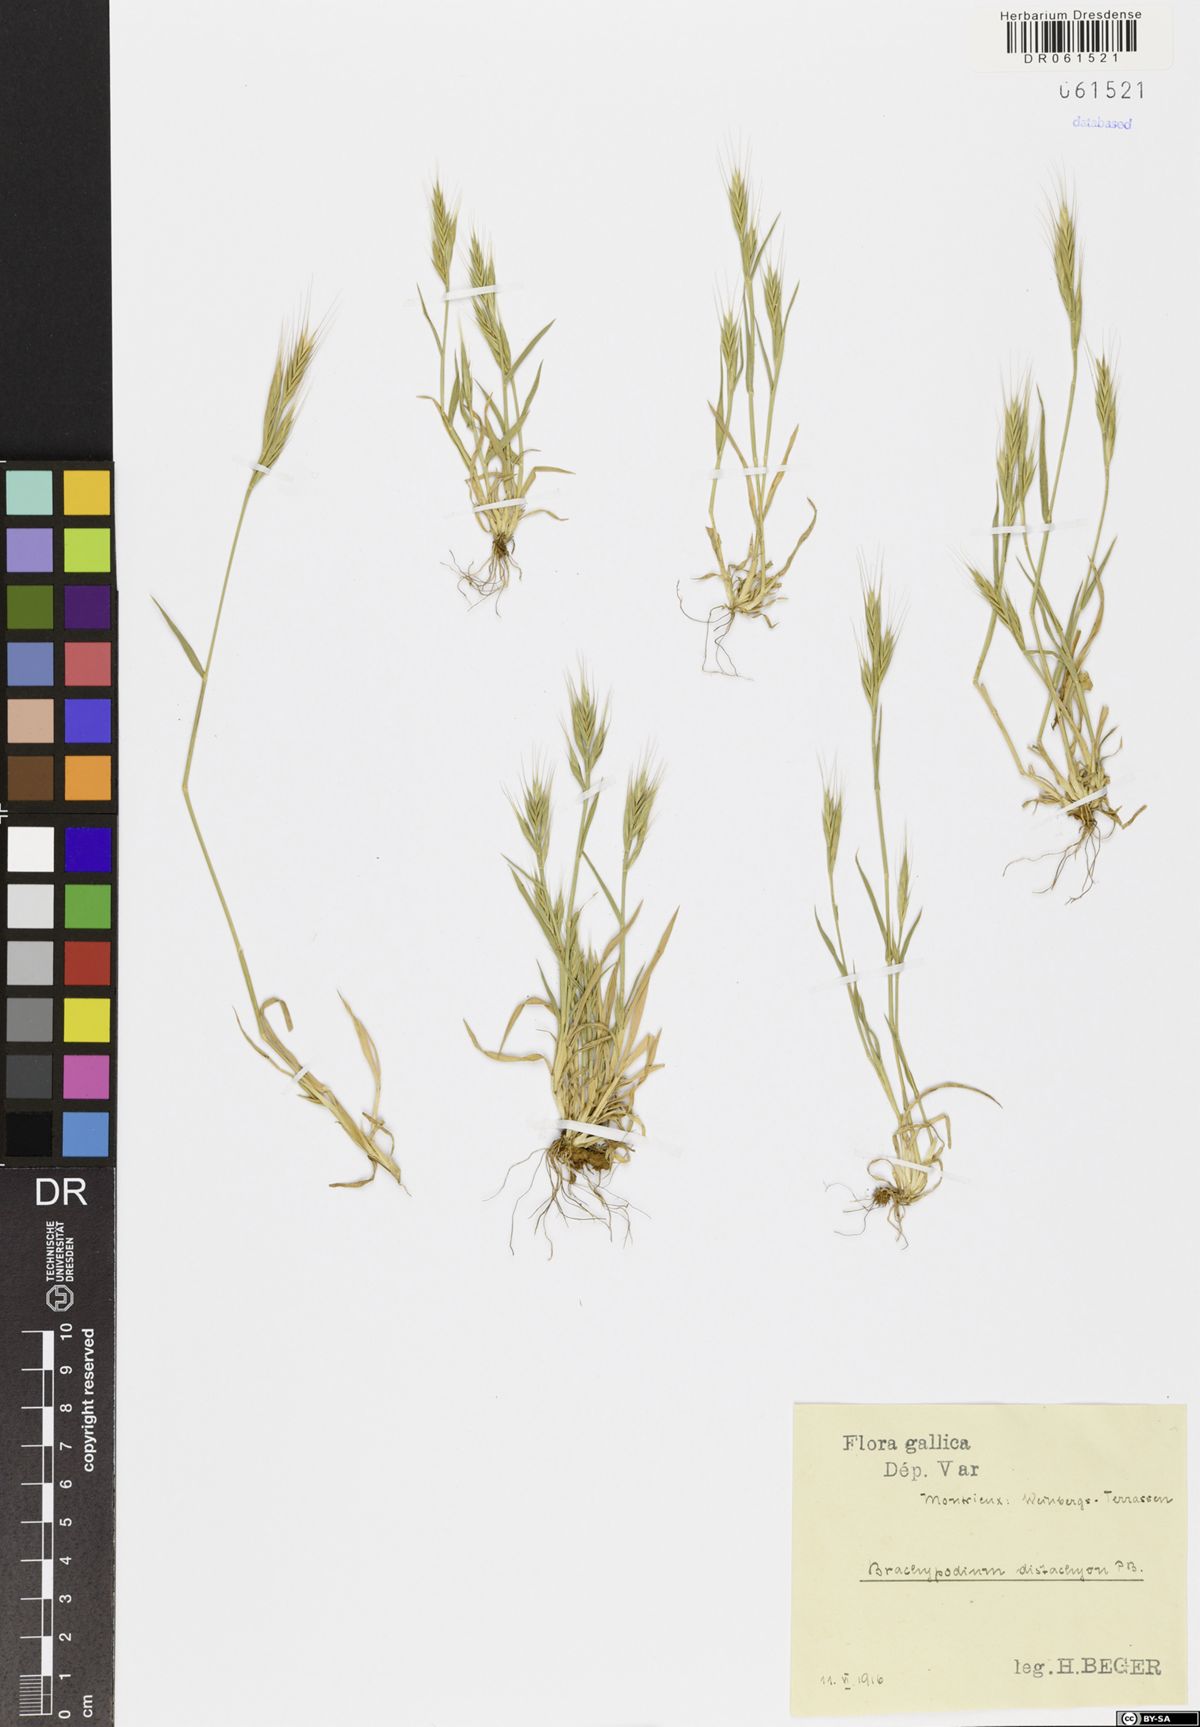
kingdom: Plantae
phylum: Tracheophyta
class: Liliopsida
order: Poales
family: Poaceae
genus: Brachypodium
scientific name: Brachypodium distachyon
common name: Stiff brome
